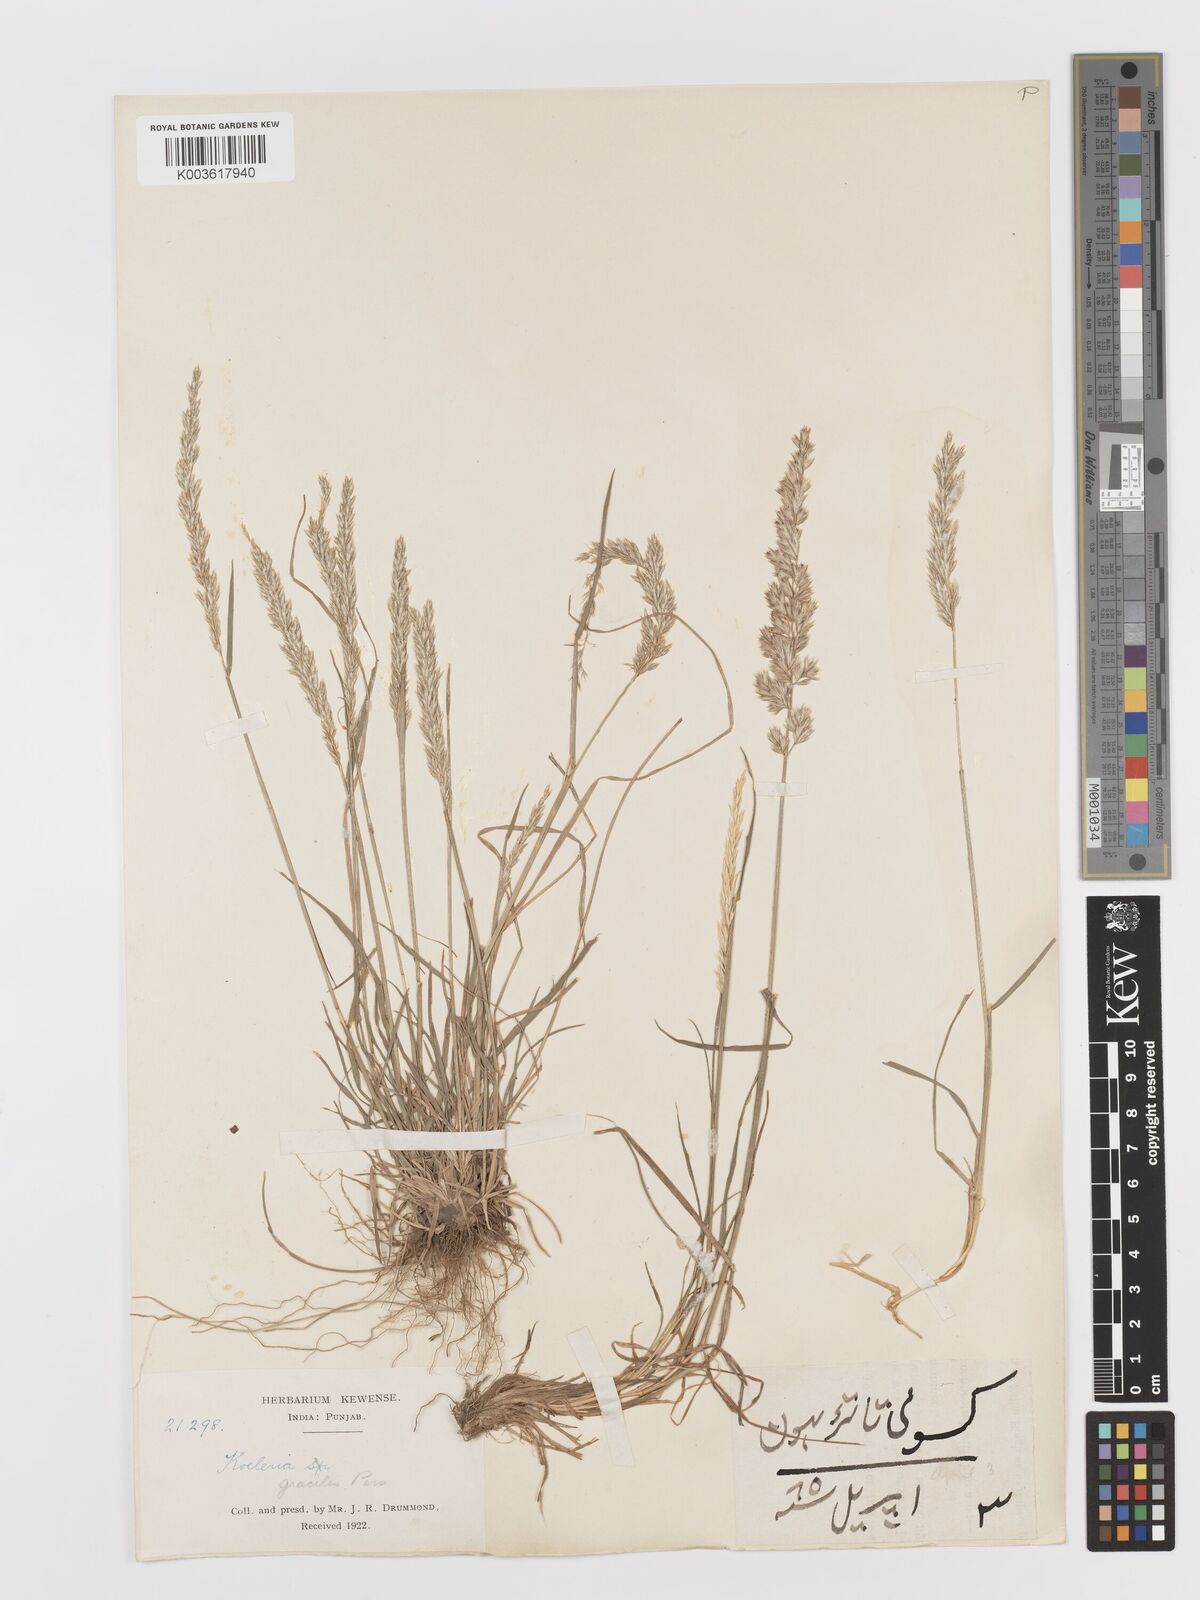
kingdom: Plantae
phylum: Tracheophyta
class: Liliopsida
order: Poales
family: Poaceae
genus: Koeleria
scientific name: Koeleria
